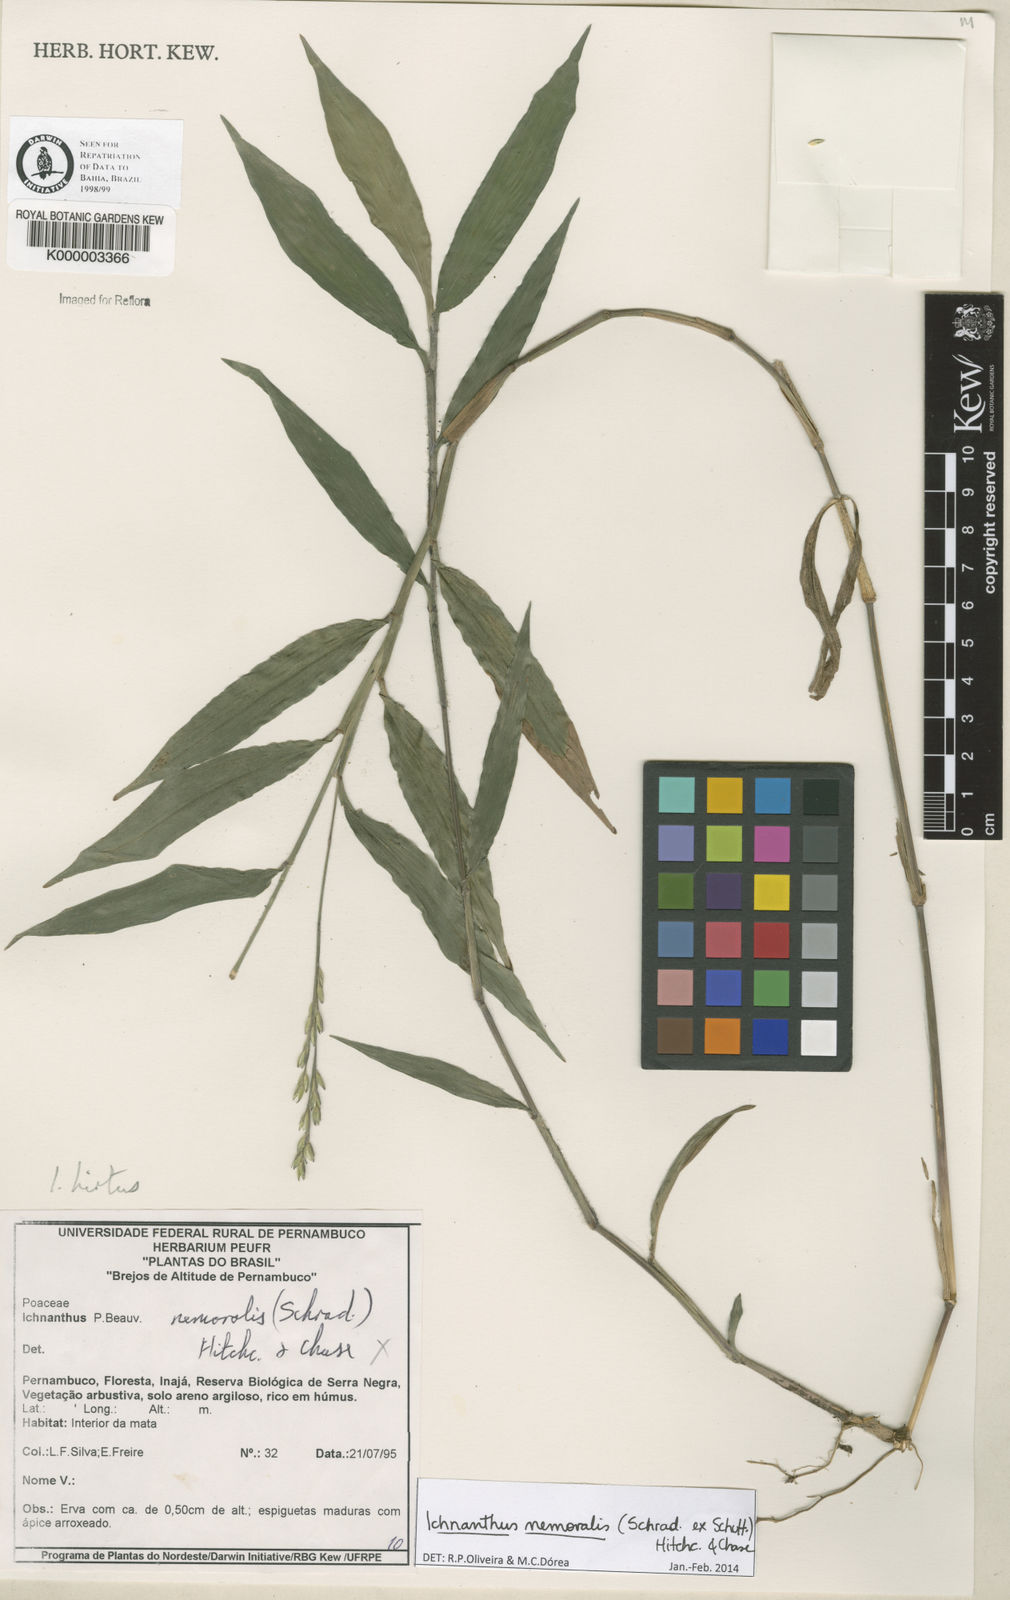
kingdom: Plantae
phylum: Tracheophyta
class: Liliopsida
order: Poales
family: Poaceae
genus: Ichnanthus
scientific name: Ichnanthus nemoralis
